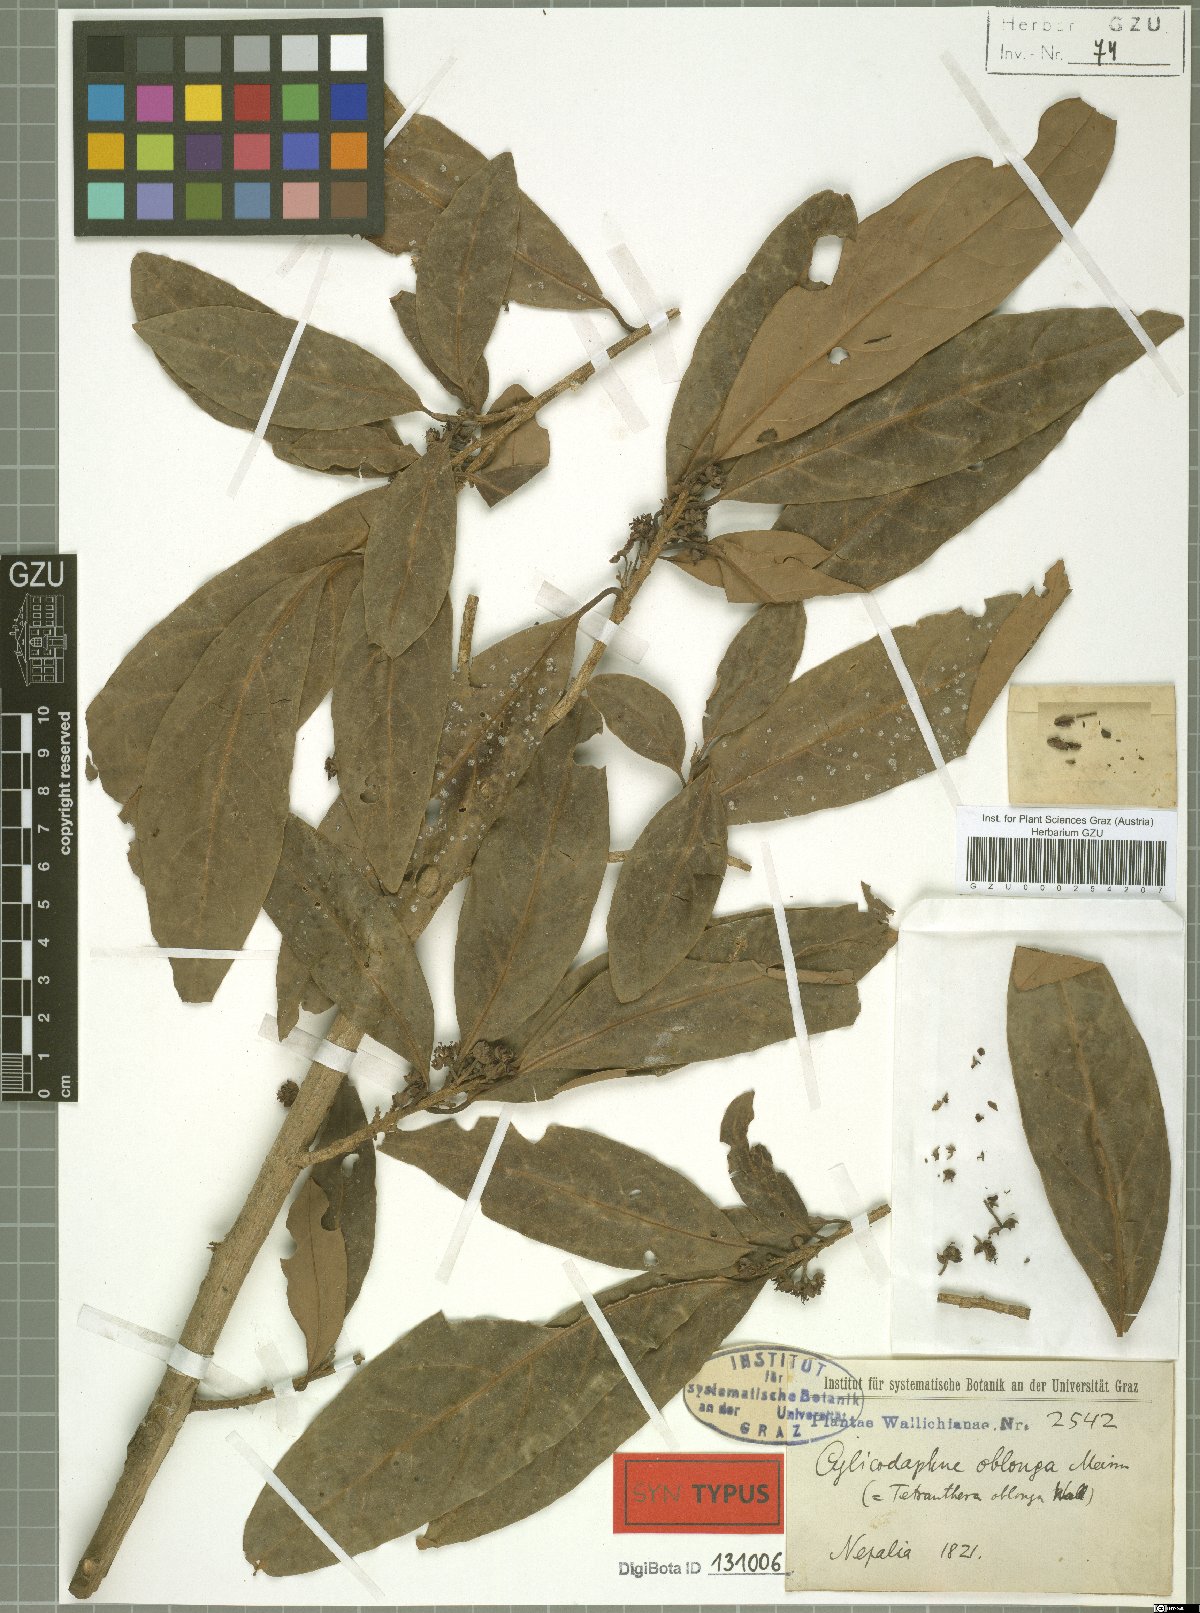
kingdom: Plantae
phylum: Tracheophyta
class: Magnoliopsida
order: Laurales
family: Lauraceae
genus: Litsea
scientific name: Litsea doshia
